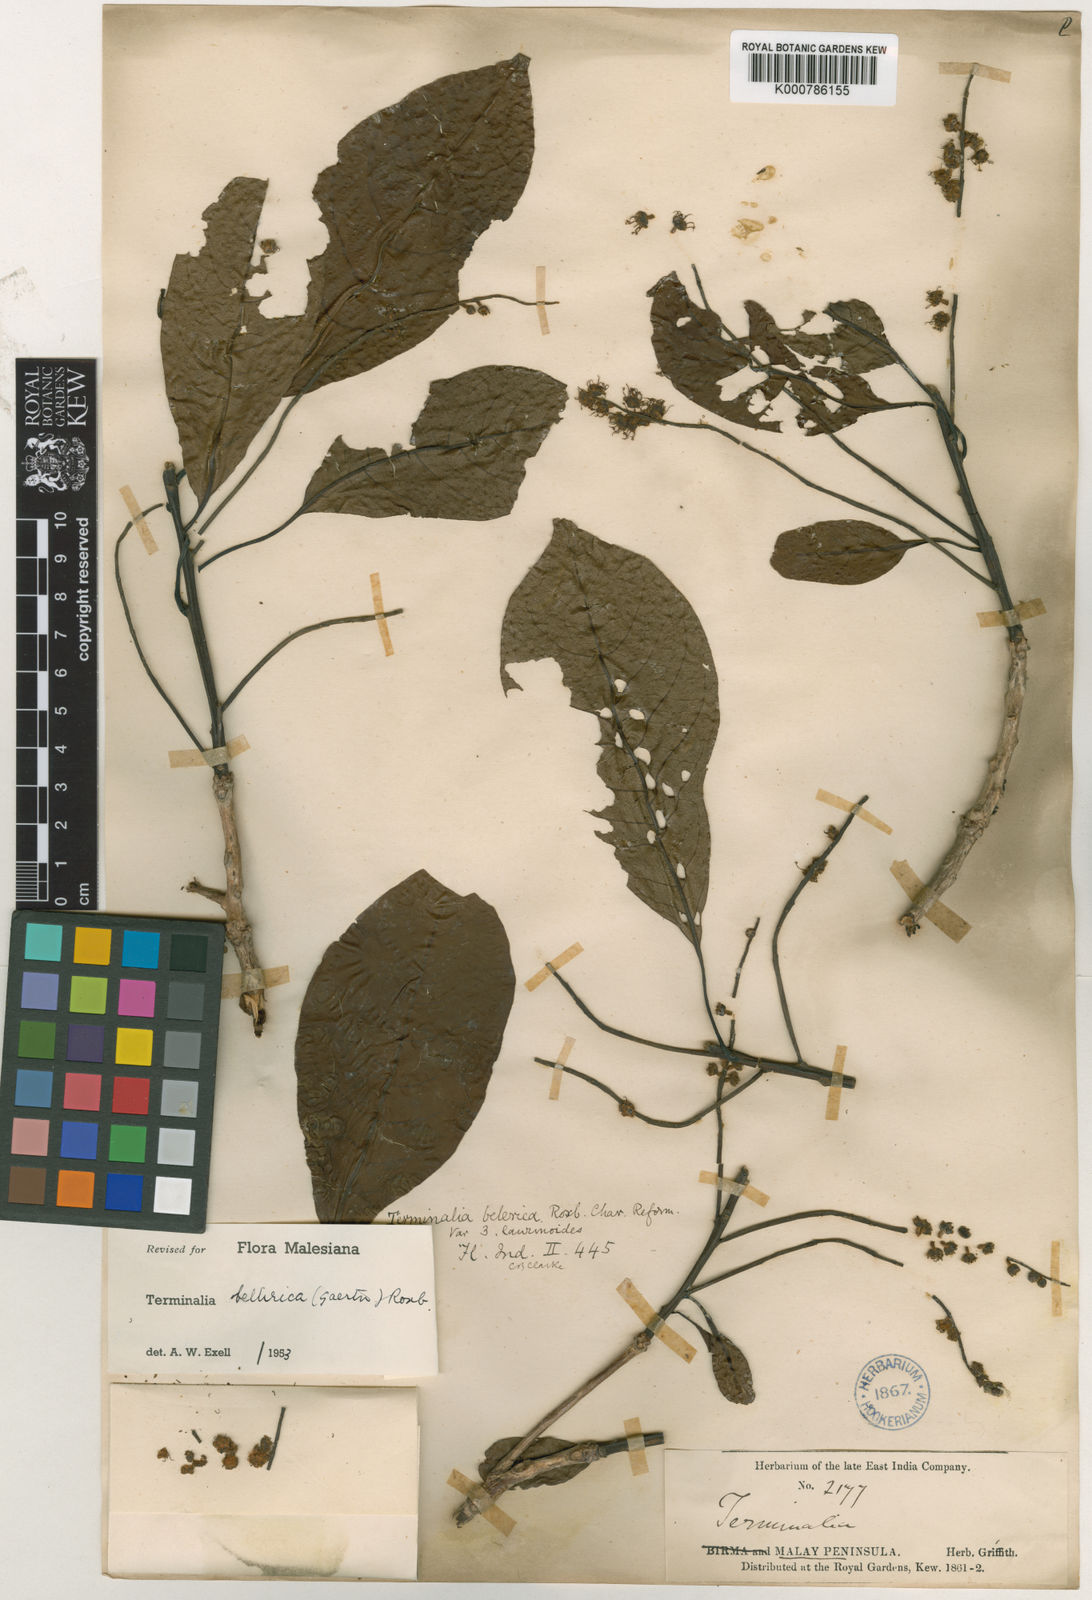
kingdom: Plantae
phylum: Tracheophyta
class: Magnoliopsida
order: Myrtales
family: Combretaceae
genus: Terminalia
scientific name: Terminalia bellirica
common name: Beleric myrobalan
